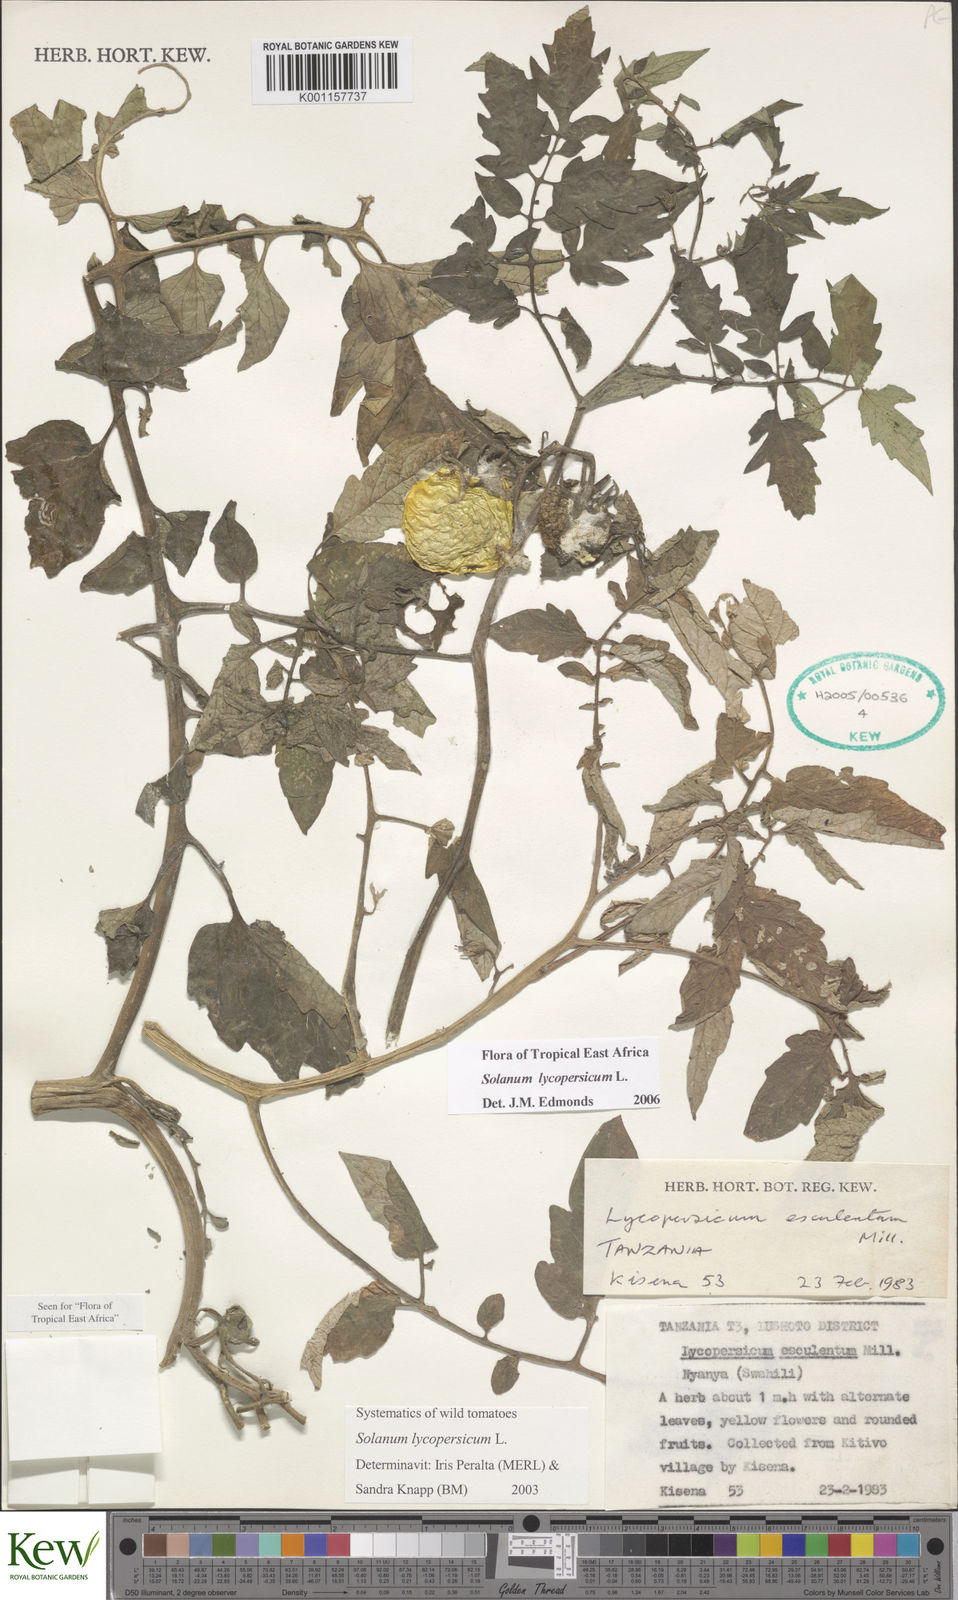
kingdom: Plantae
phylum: Tracheophyta
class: Magnoliopsida
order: Solanales
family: Solanaceae
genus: Solanum
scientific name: Solanum lycopersicum
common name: Garden tomato
